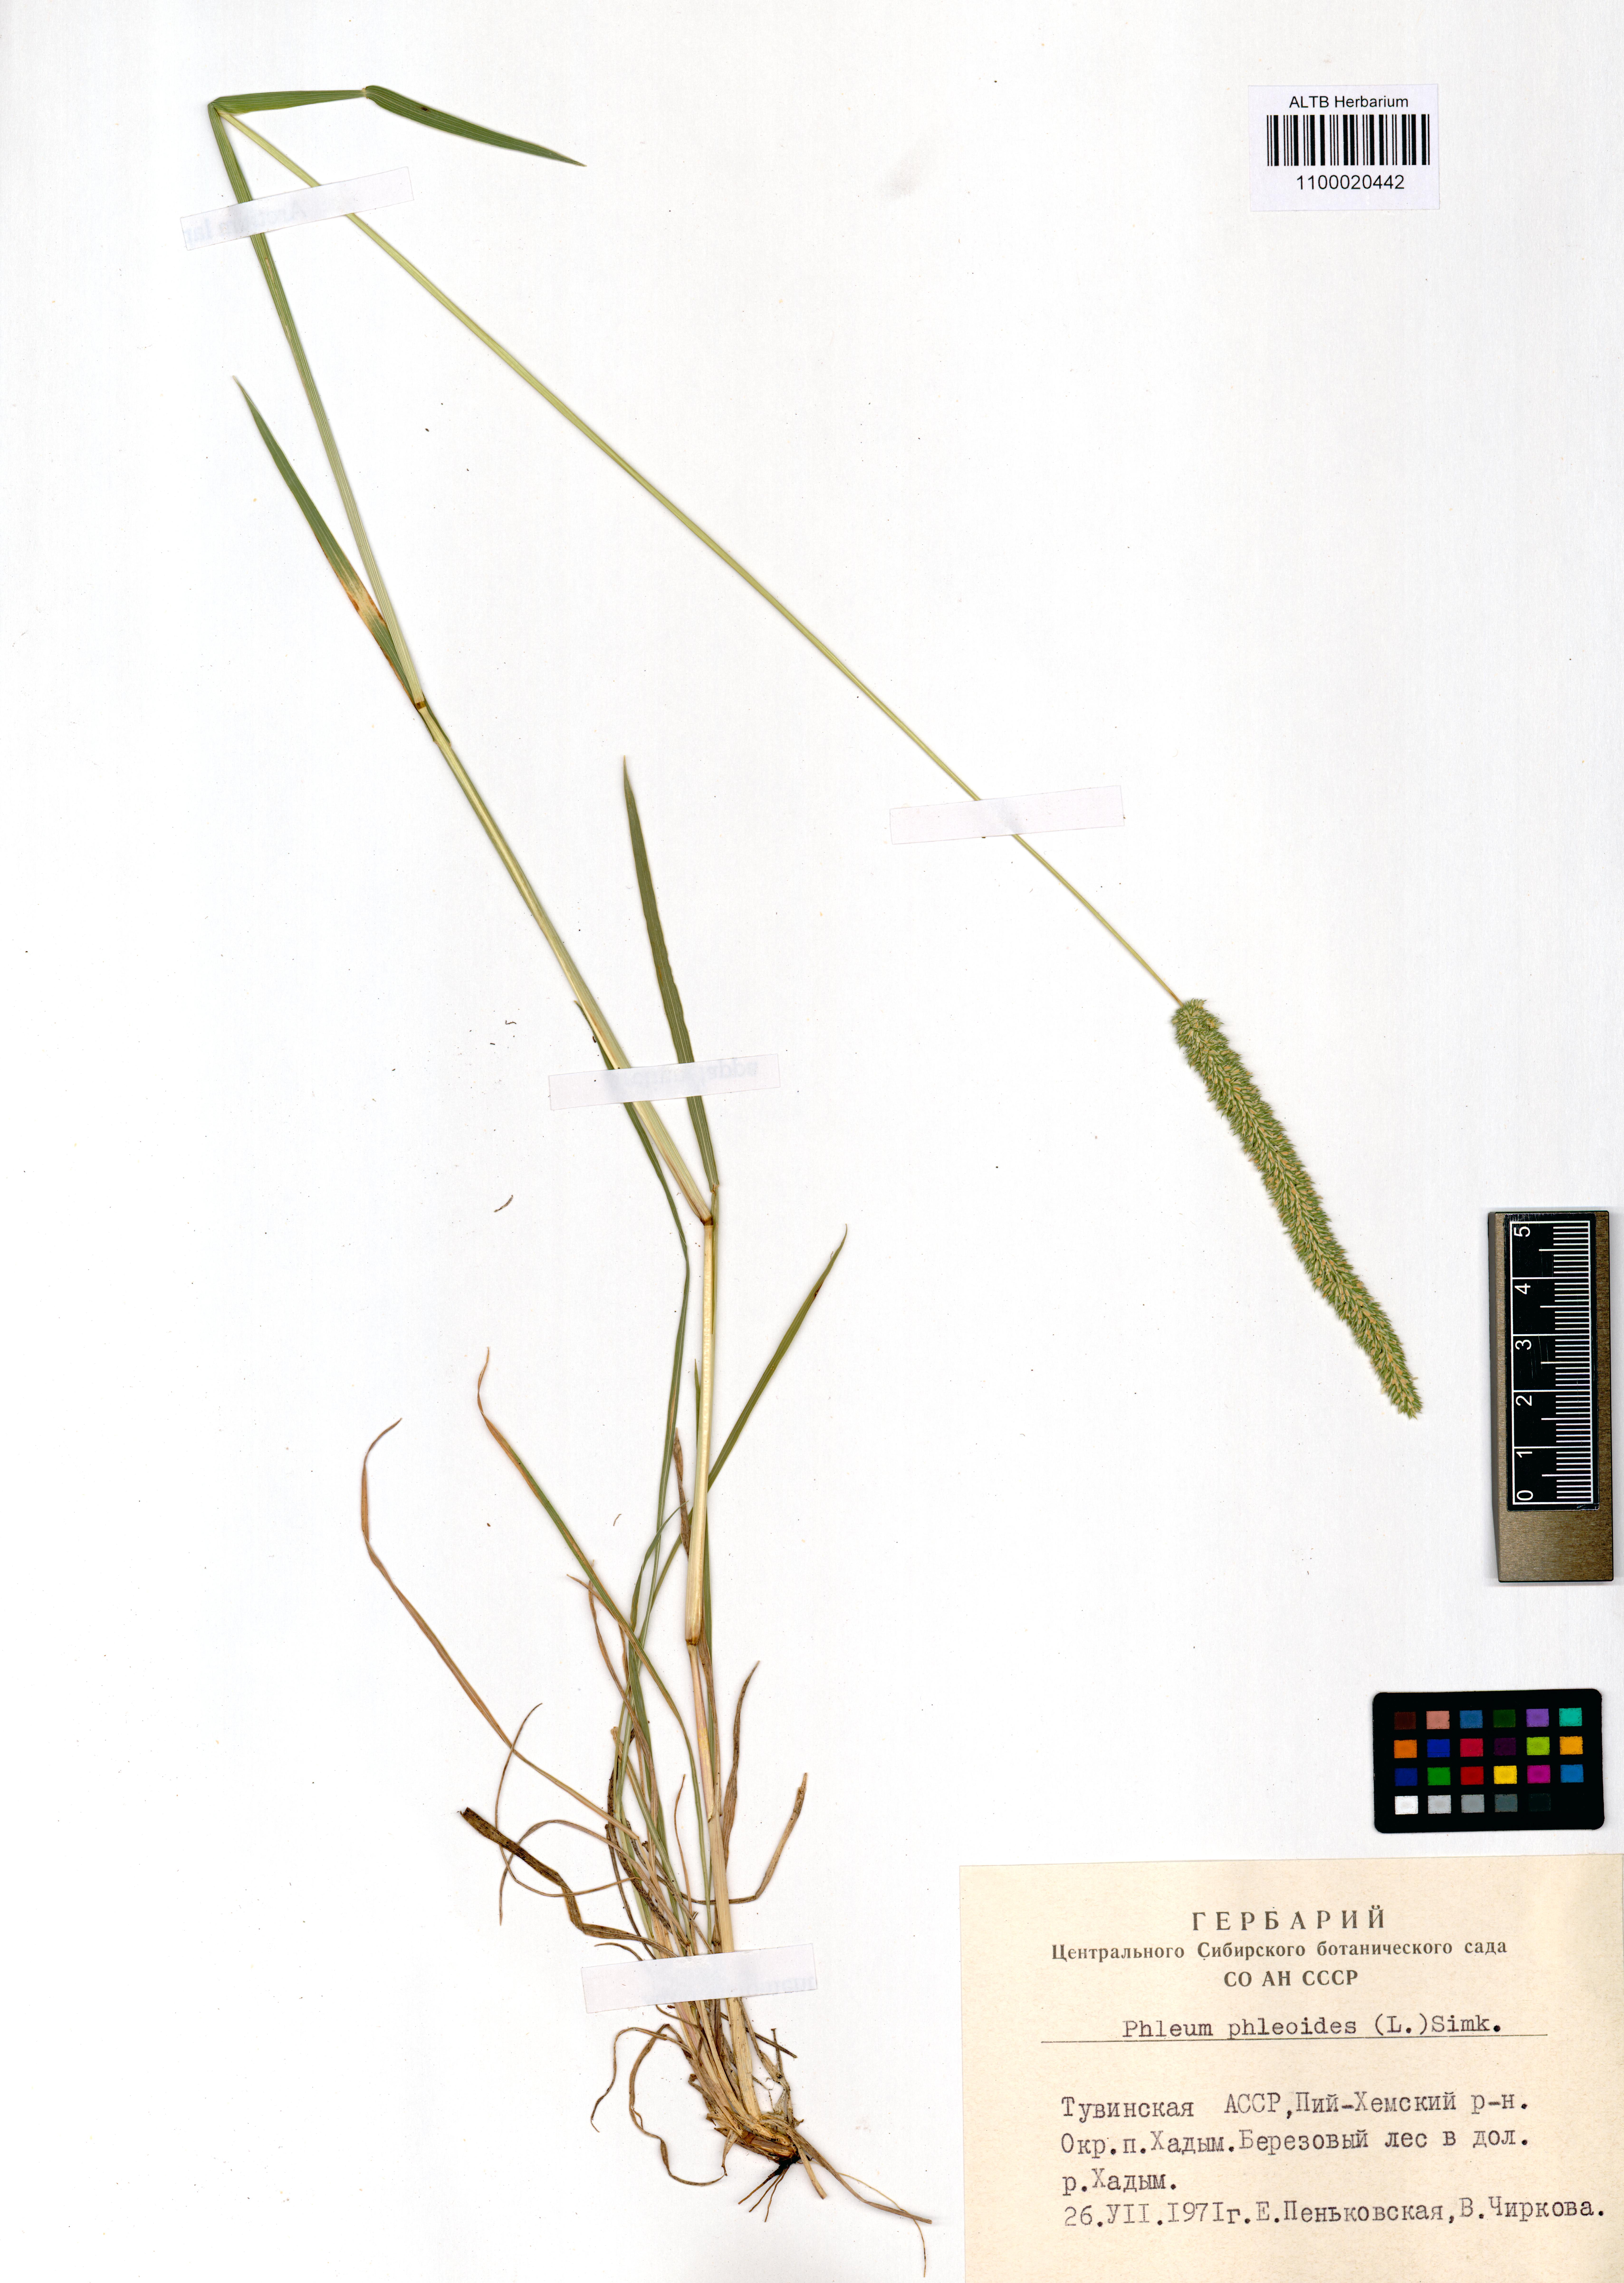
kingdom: Plantae
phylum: Tracheophyta
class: Liliopsida
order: Poales
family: Poaceae
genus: Phleum
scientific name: Phleum phleoides
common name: Purple-stem cat's-tail
